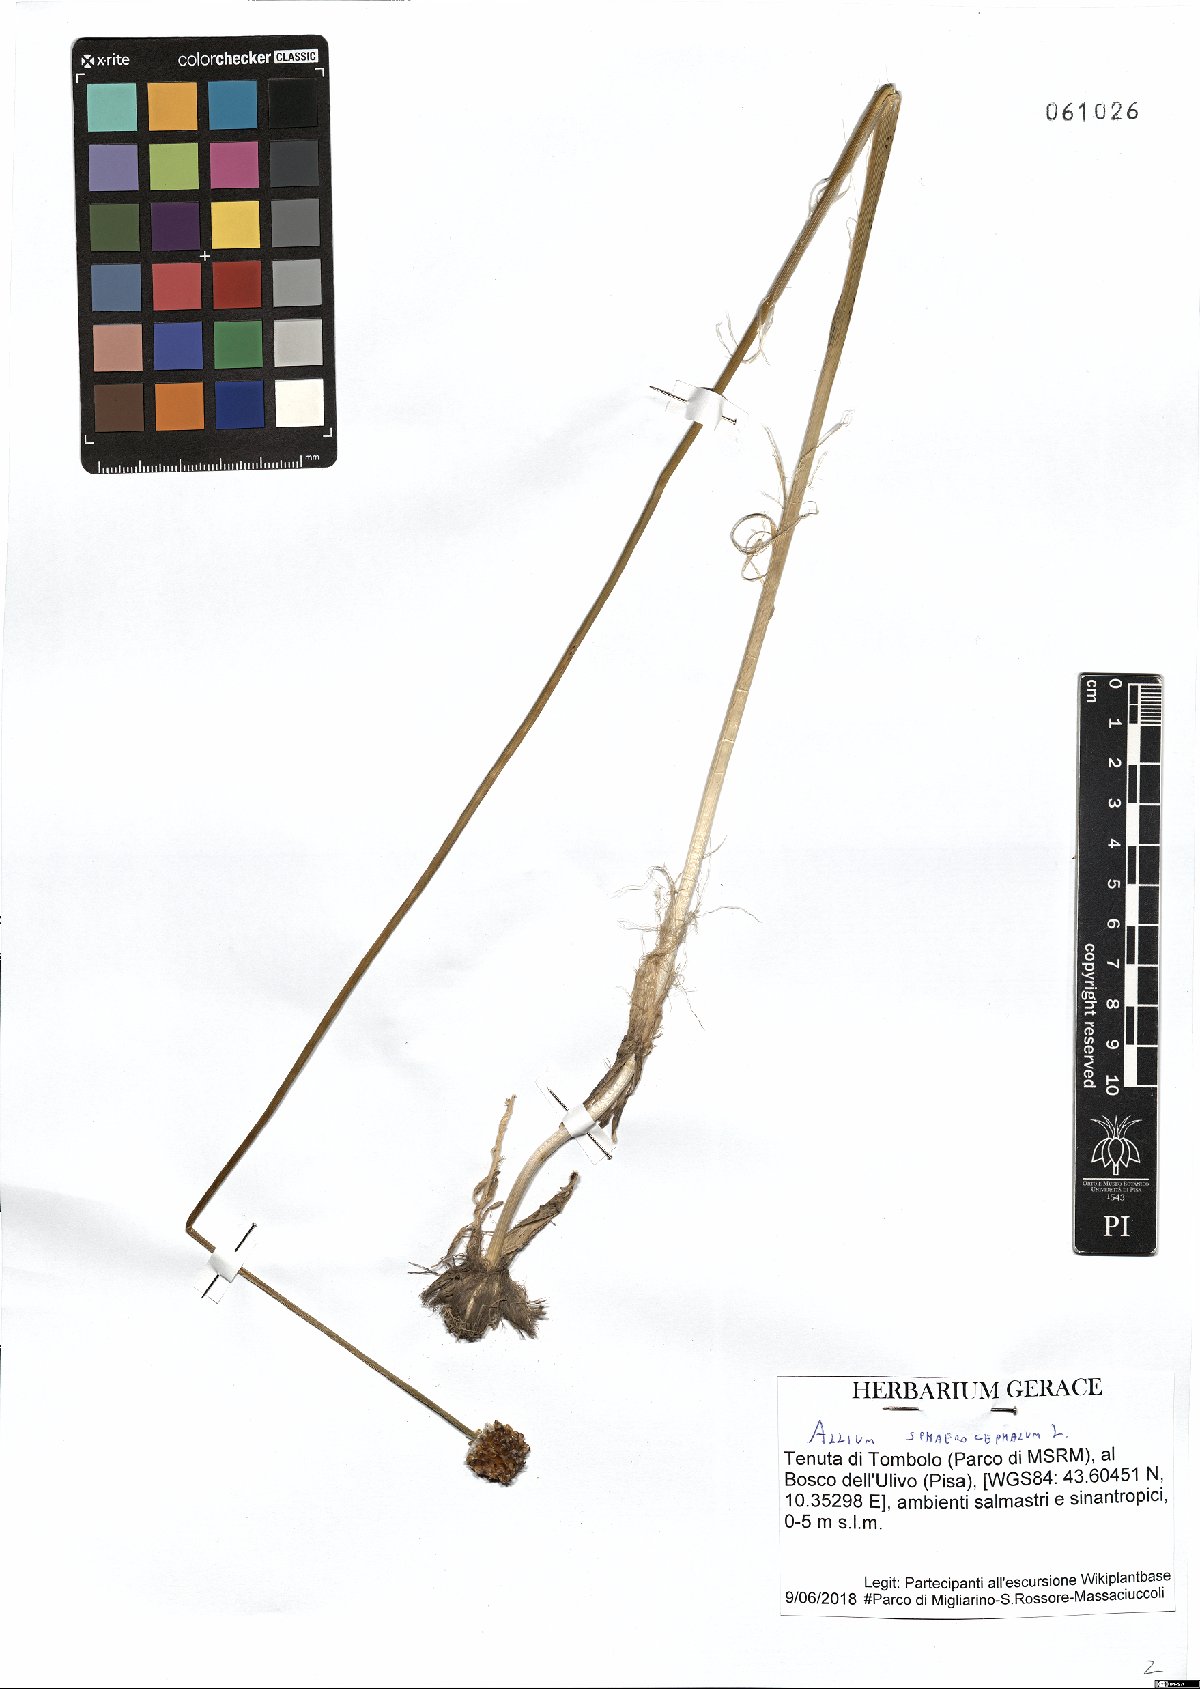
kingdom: Plantae
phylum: Tracheophyta
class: Liliopsida
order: Asparagales
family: Amaryllidaceae
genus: Allium
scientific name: Allium sphaerocephalon
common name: Round-headed leek
